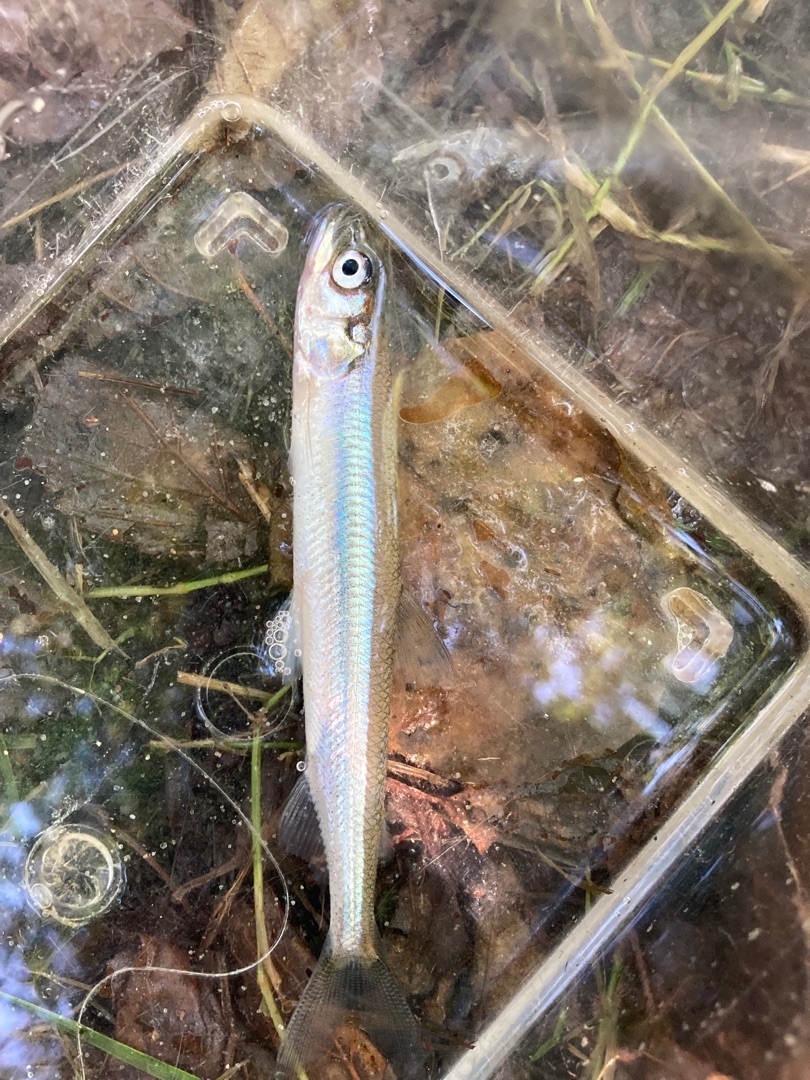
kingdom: Animalia
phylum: Chordata
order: Osmeriformes
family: Osmeridae
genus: Osmerus
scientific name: Osmerus eperlanus
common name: Smelt
